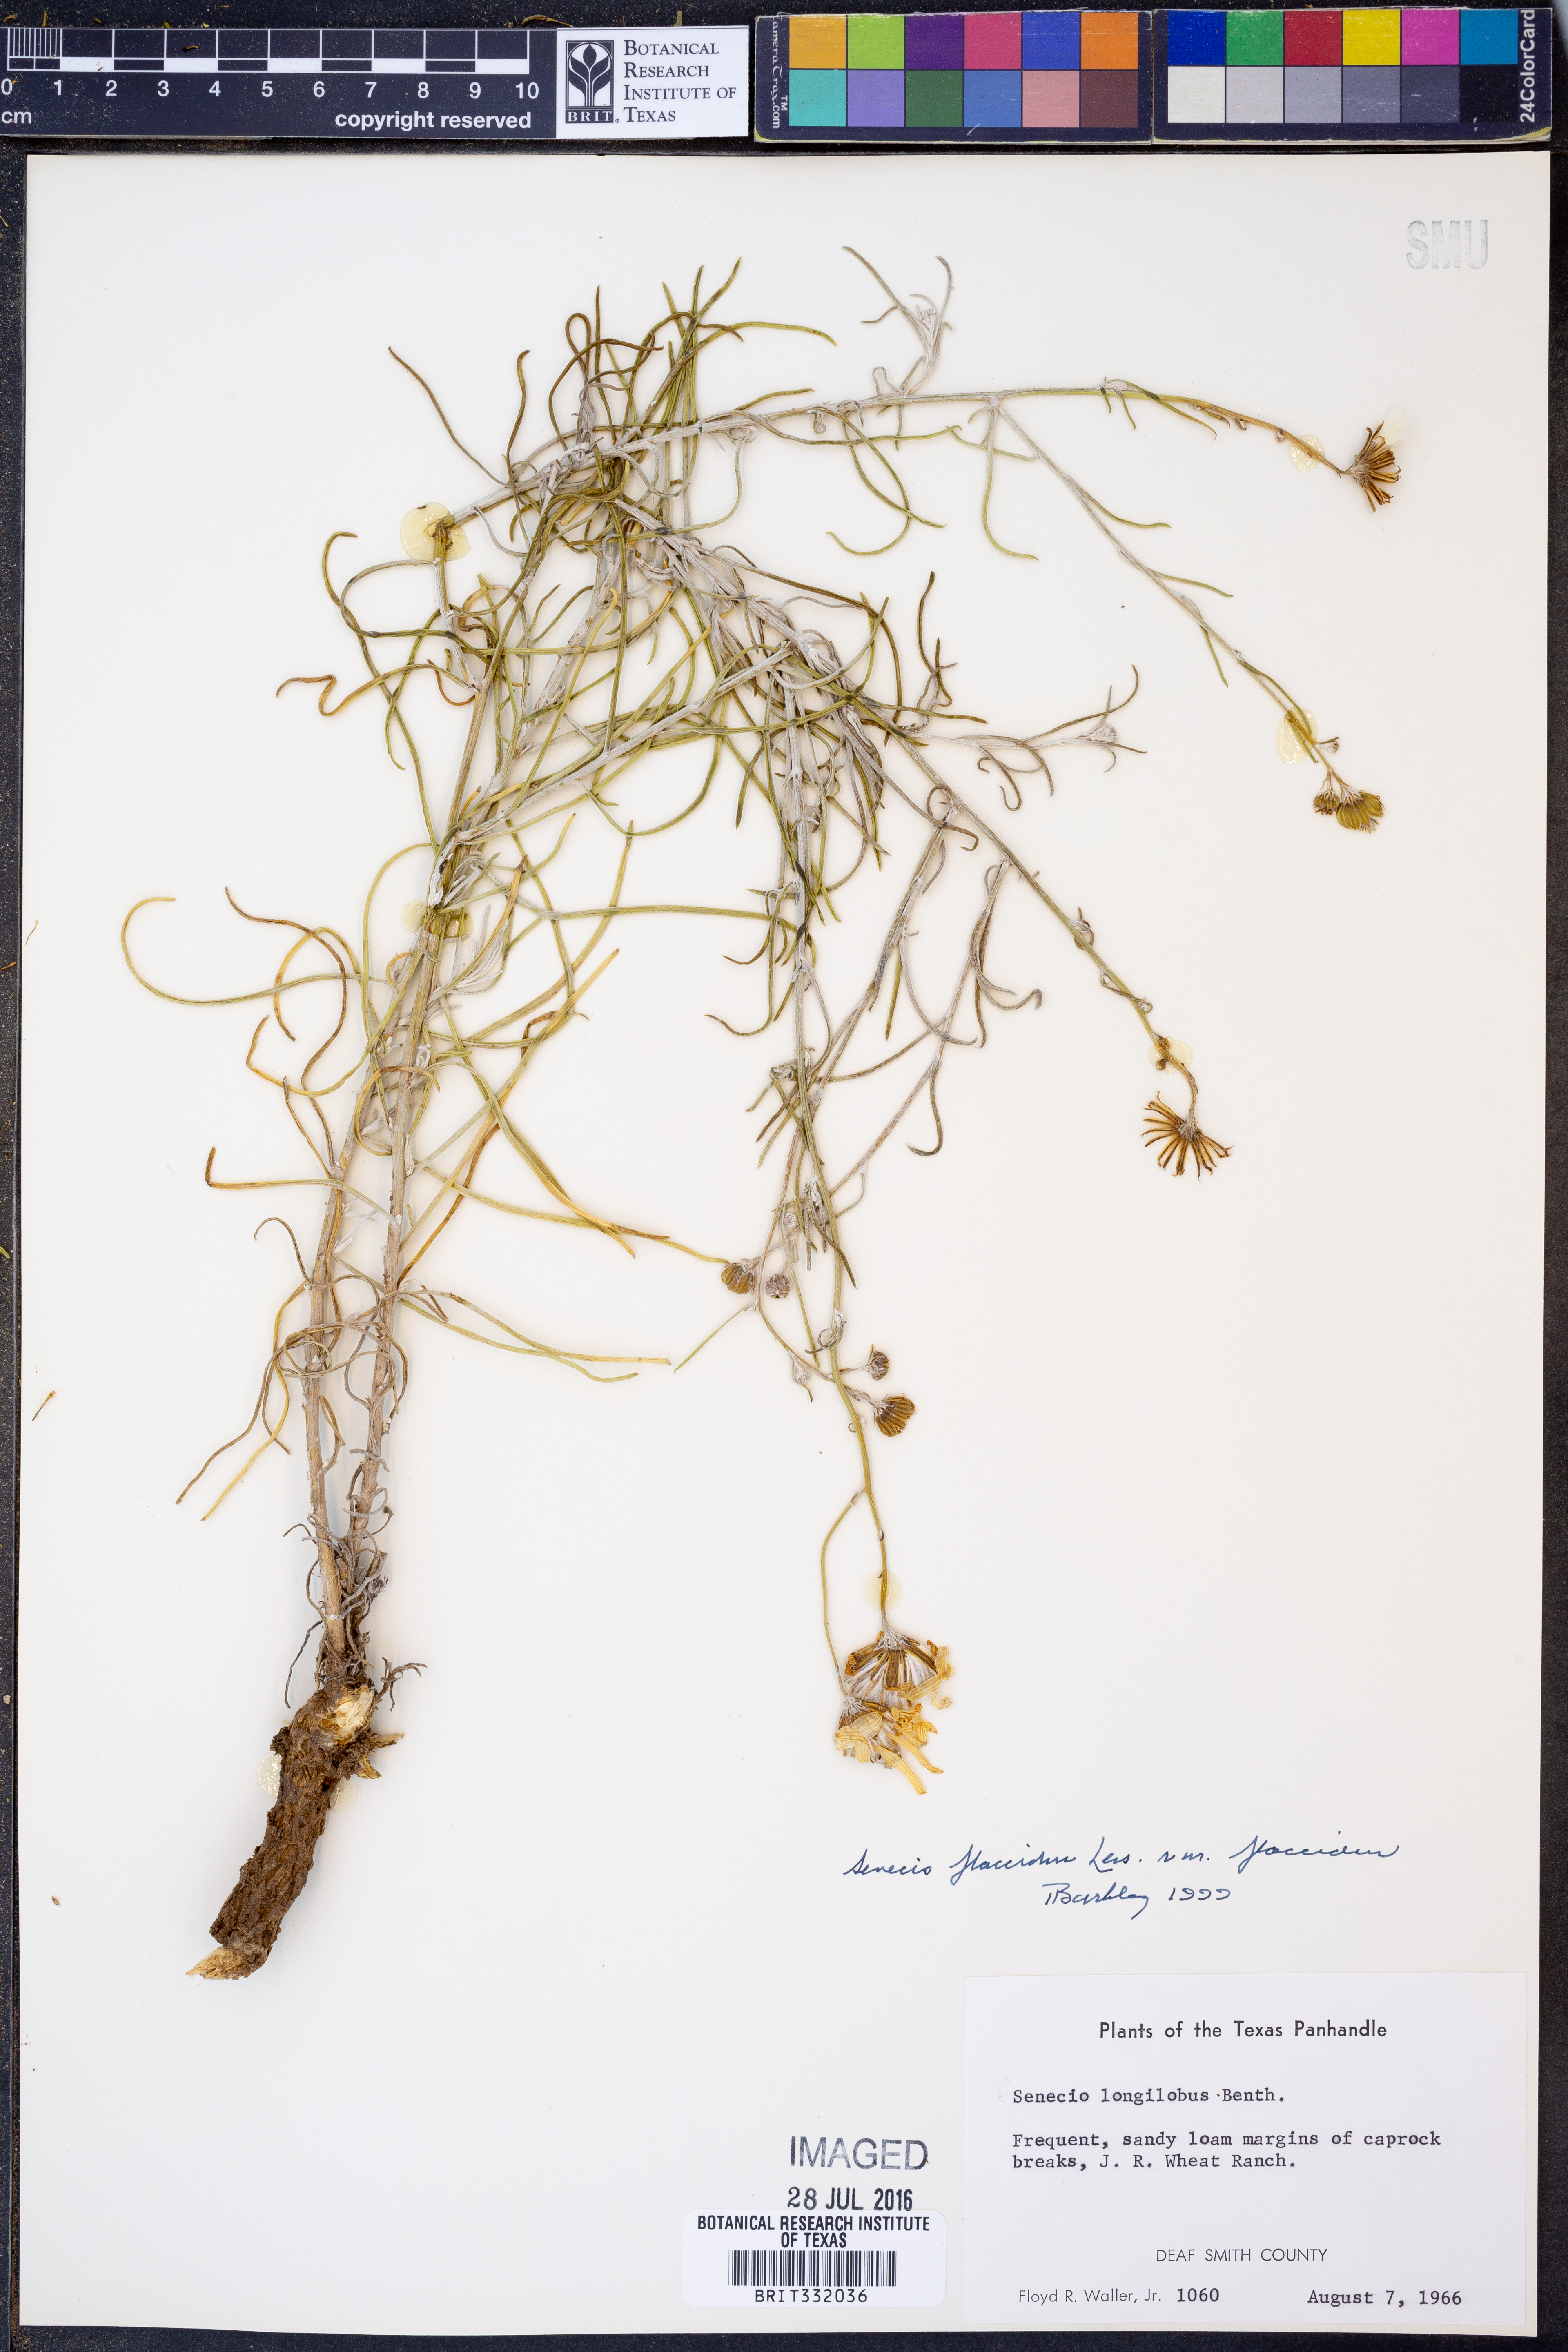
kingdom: Plantae
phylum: Tracheophyta
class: Magnoliopsida
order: Asterales
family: Asteraceae
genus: Senecio
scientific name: Senecio flaccidus
